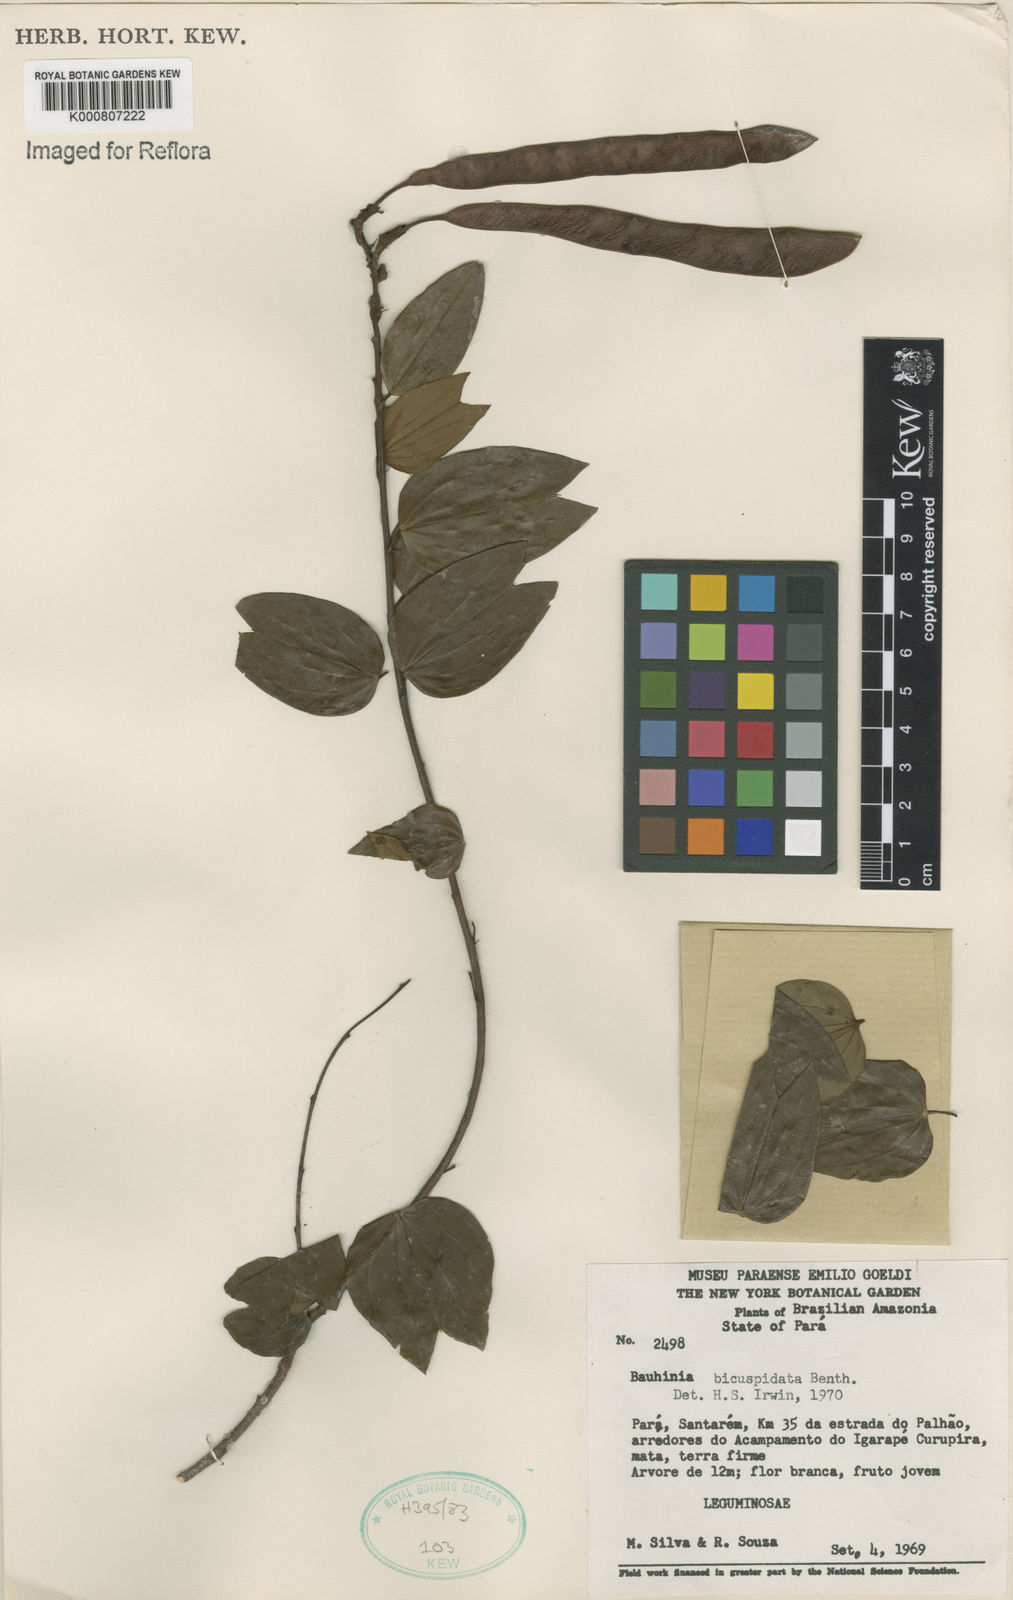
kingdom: Plantae
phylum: Tracheophyta
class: Magnoliopsida
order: Fabales
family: Fabaceae
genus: Bauhinia
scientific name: Bauhinia longicuspis
